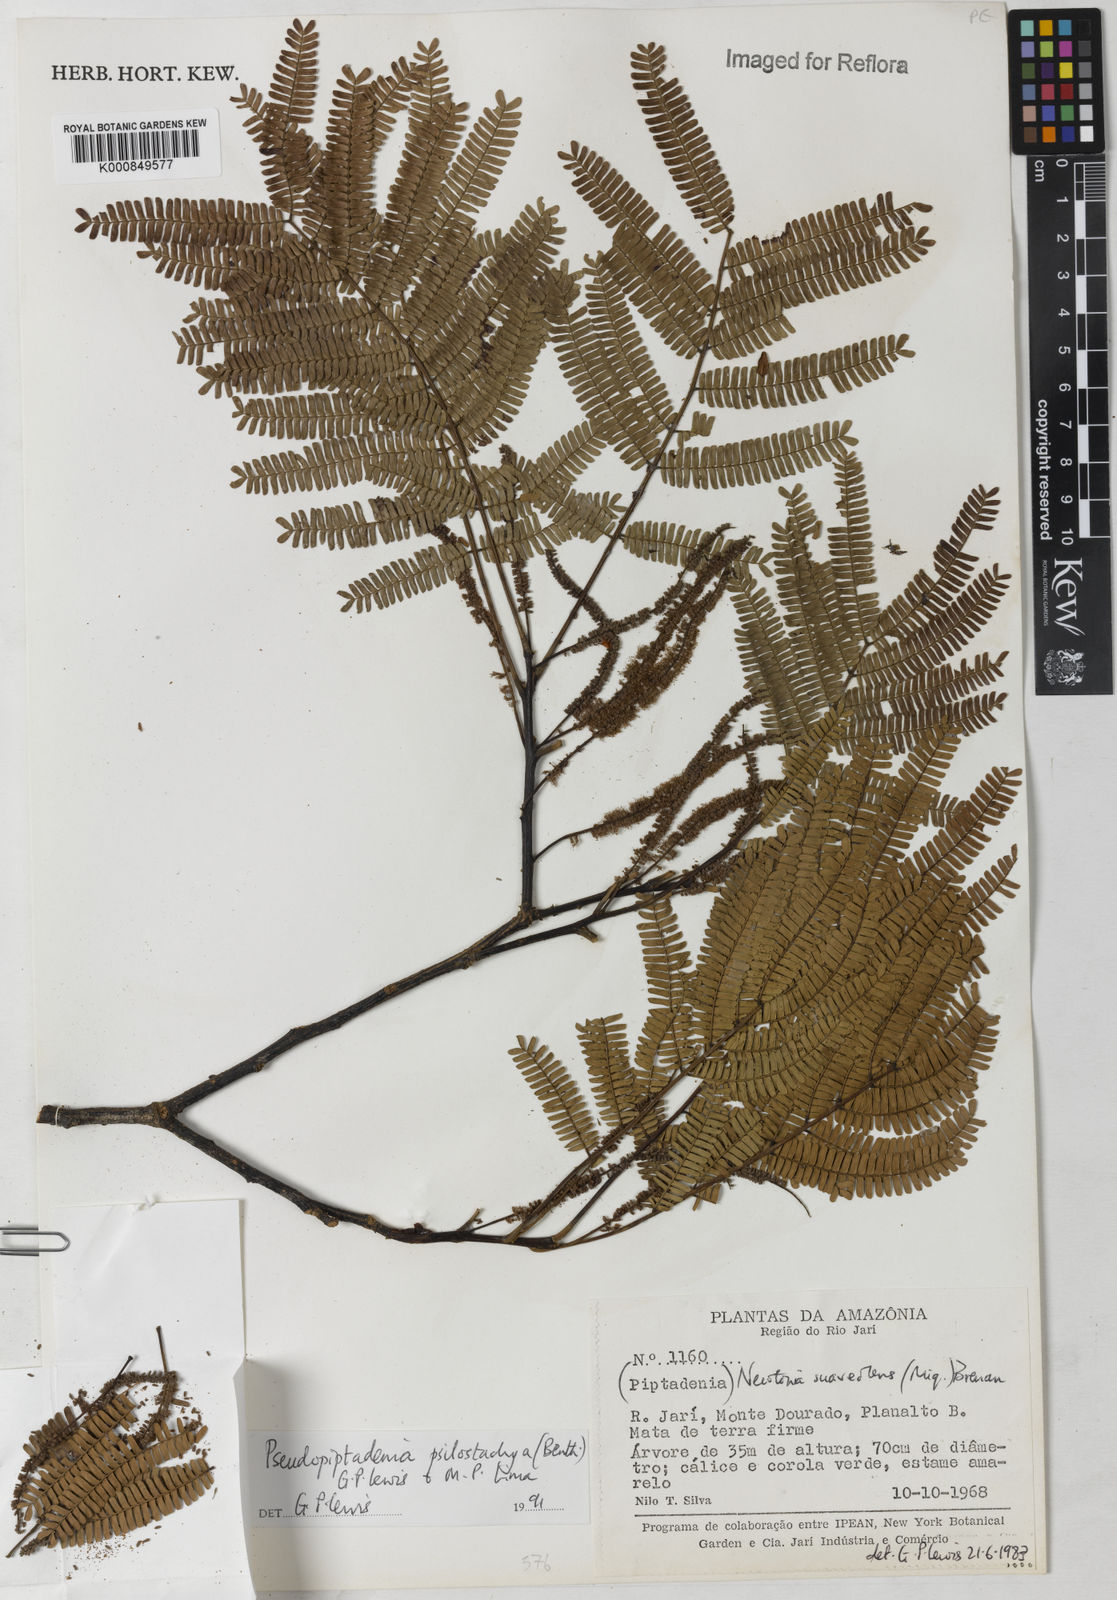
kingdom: Plantae
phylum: Tracheophyta
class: Magnoliopsida
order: Fabales
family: Fabaceae
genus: Pseudopiptadenia
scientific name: Pseudopiptadenia psilostachya
